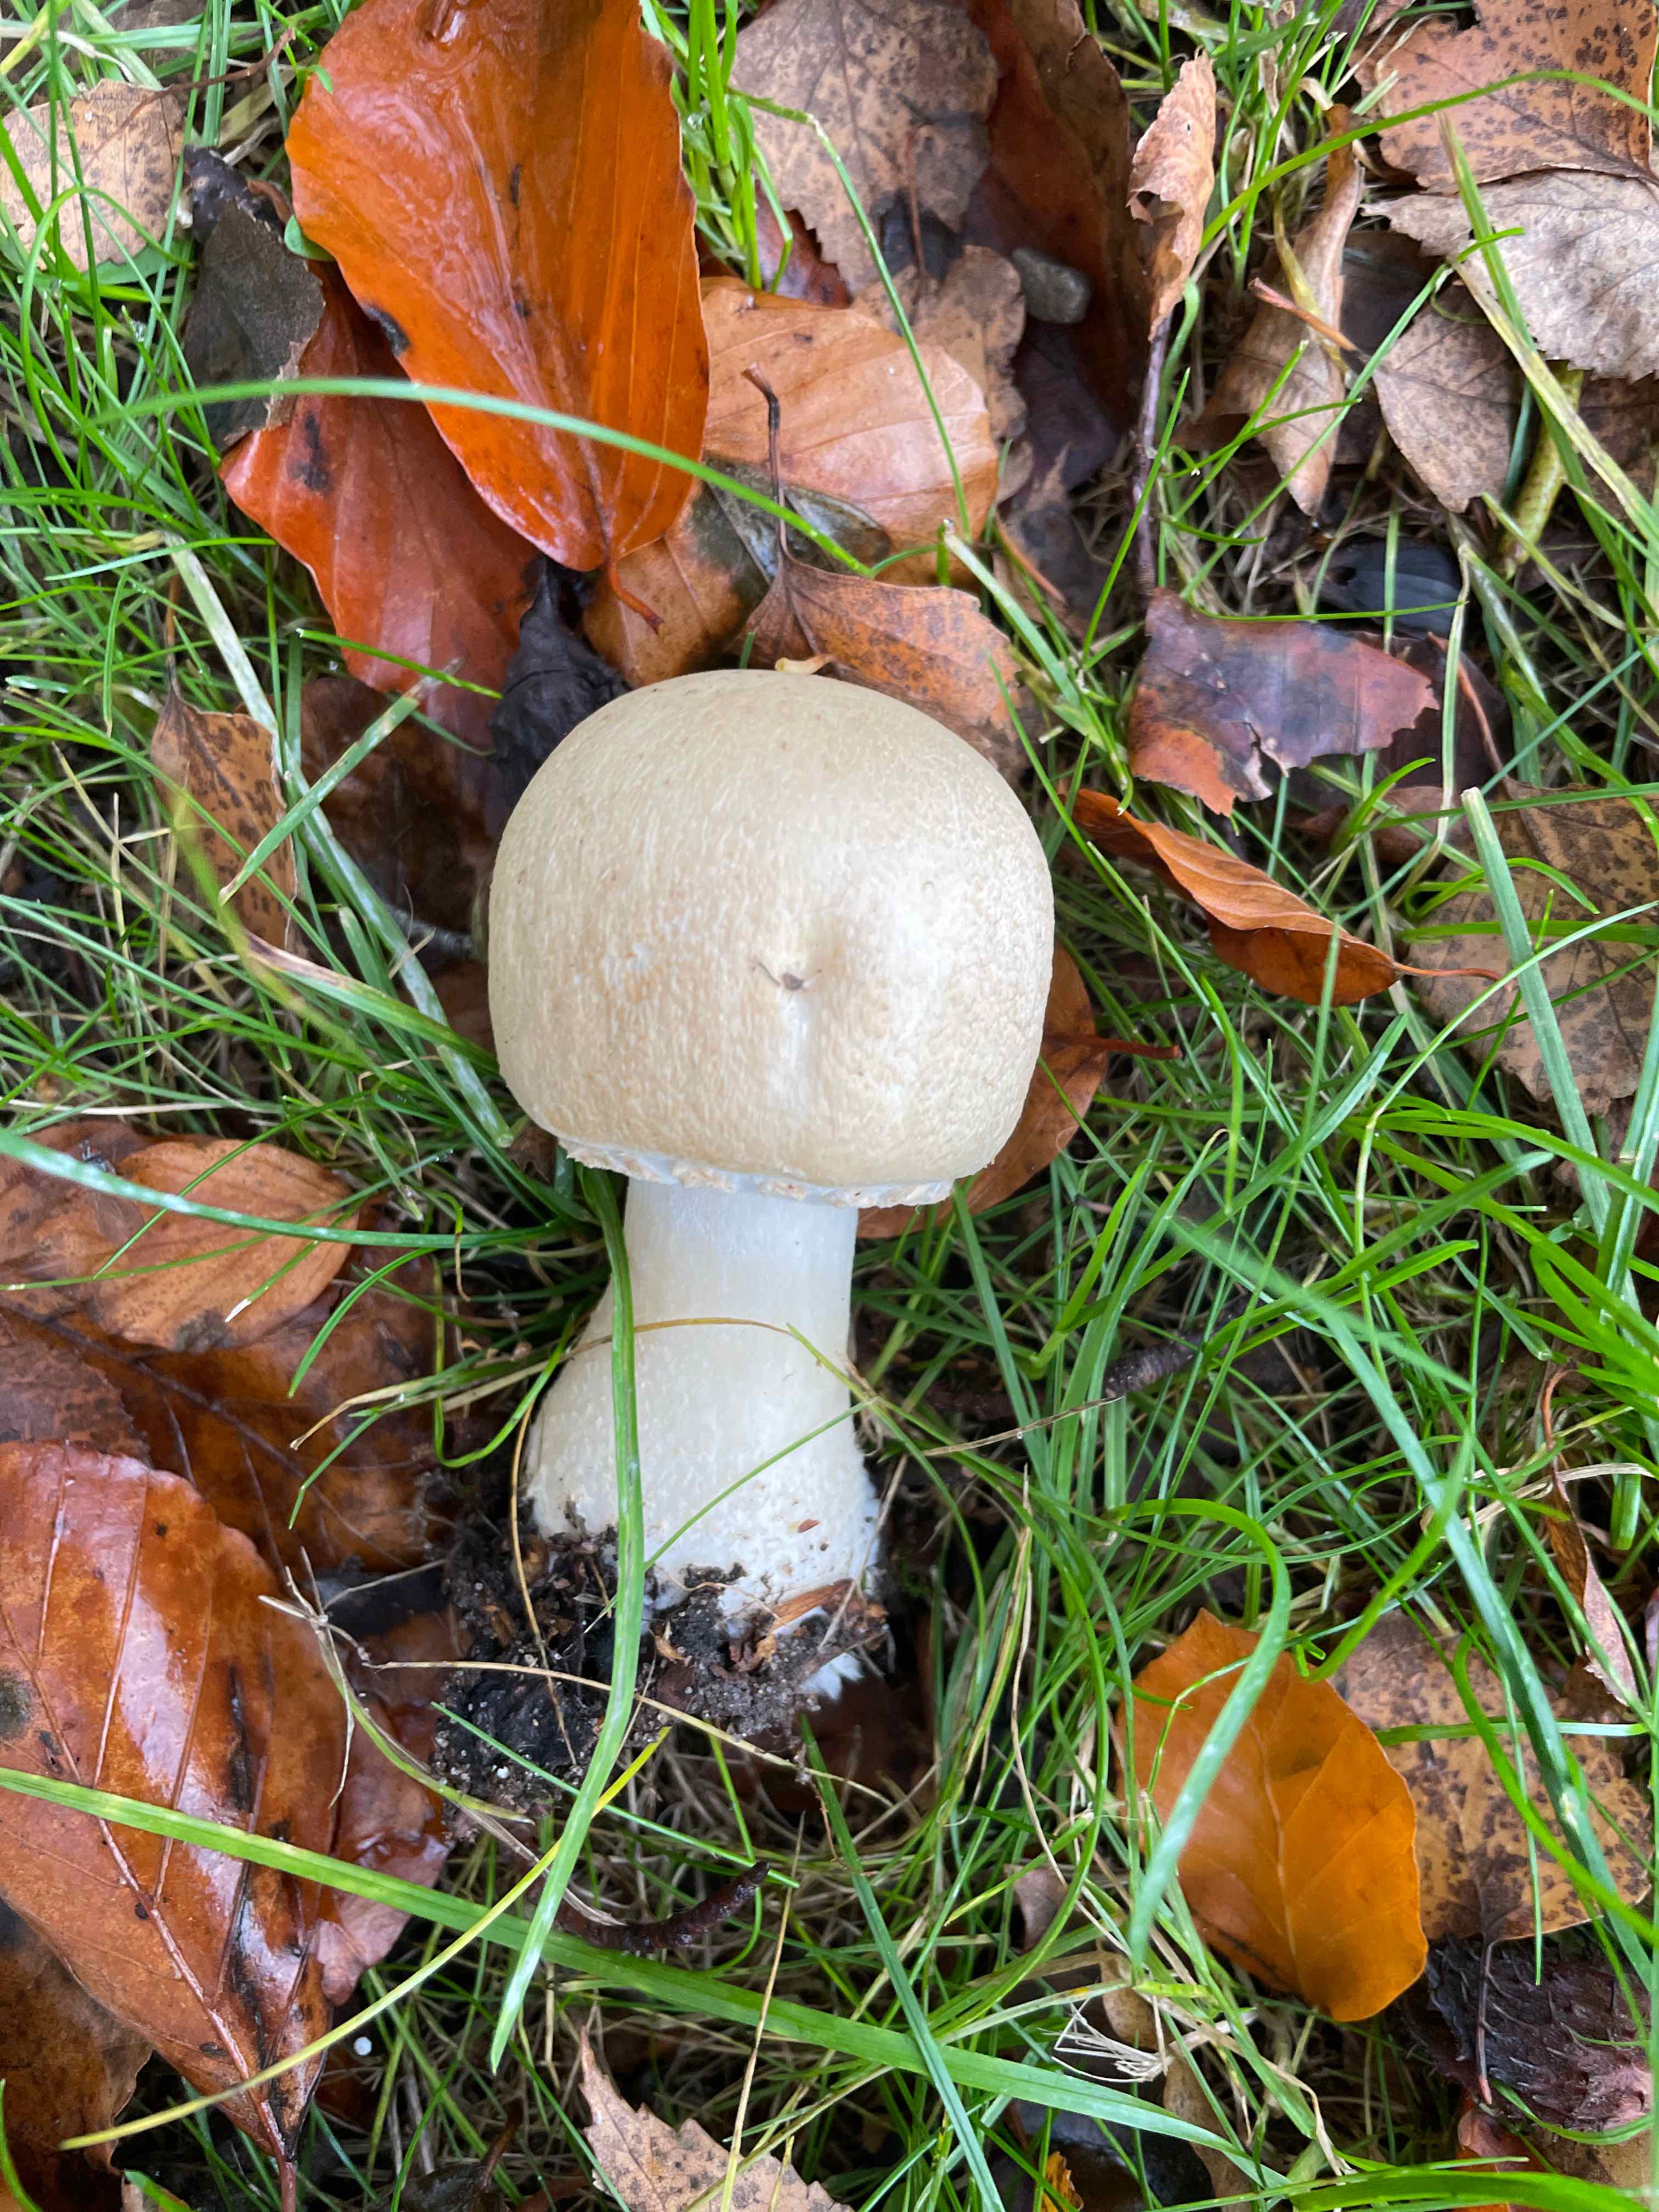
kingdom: Fungi
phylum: Basidiomycota
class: Agaricomycetes
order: Agaricales
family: Agaricaceae
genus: Agaricus
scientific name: Agaricus
